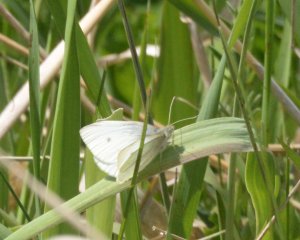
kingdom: Animalia
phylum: Arthropoda
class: Insecta
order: Lepidoptera
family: Pieridae
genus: Pieris
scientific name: Pieris rapae
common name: Cabbage White
